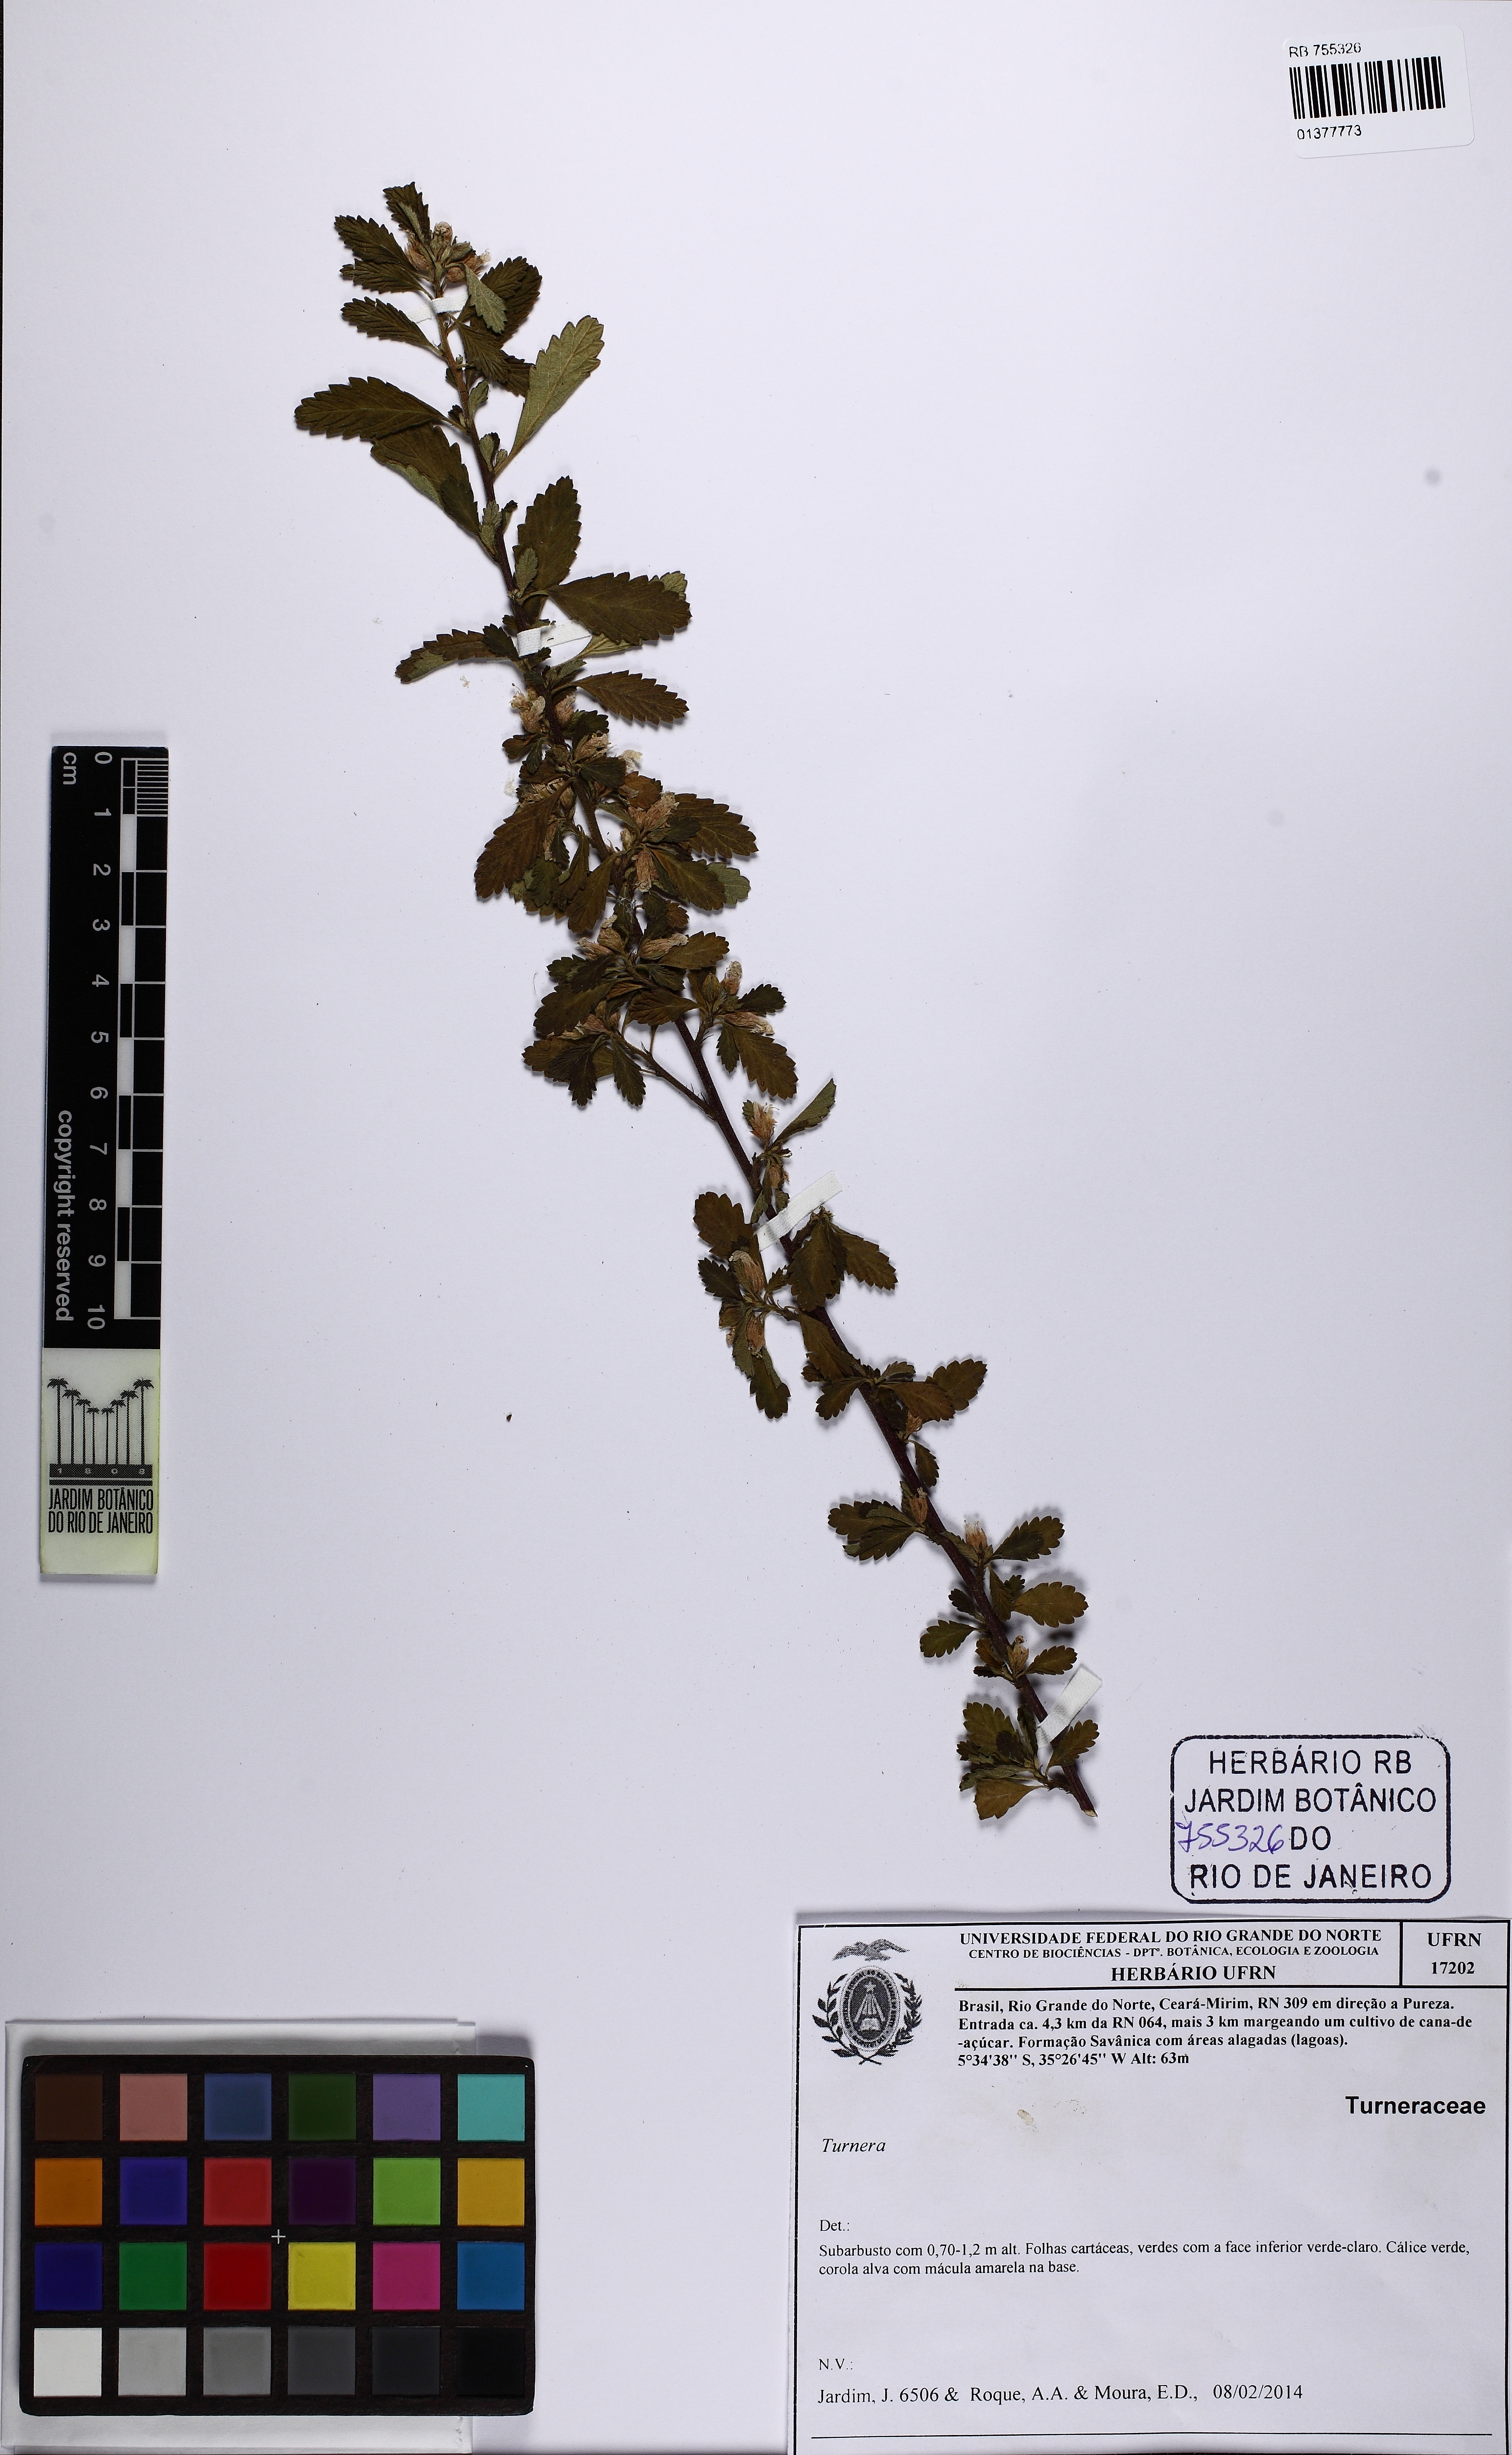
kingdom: Plantae
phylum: Tracheophyta
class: Magnoliopsida
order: Malpighiales
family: Turneraceae
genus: Turnera
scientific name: Turnera
